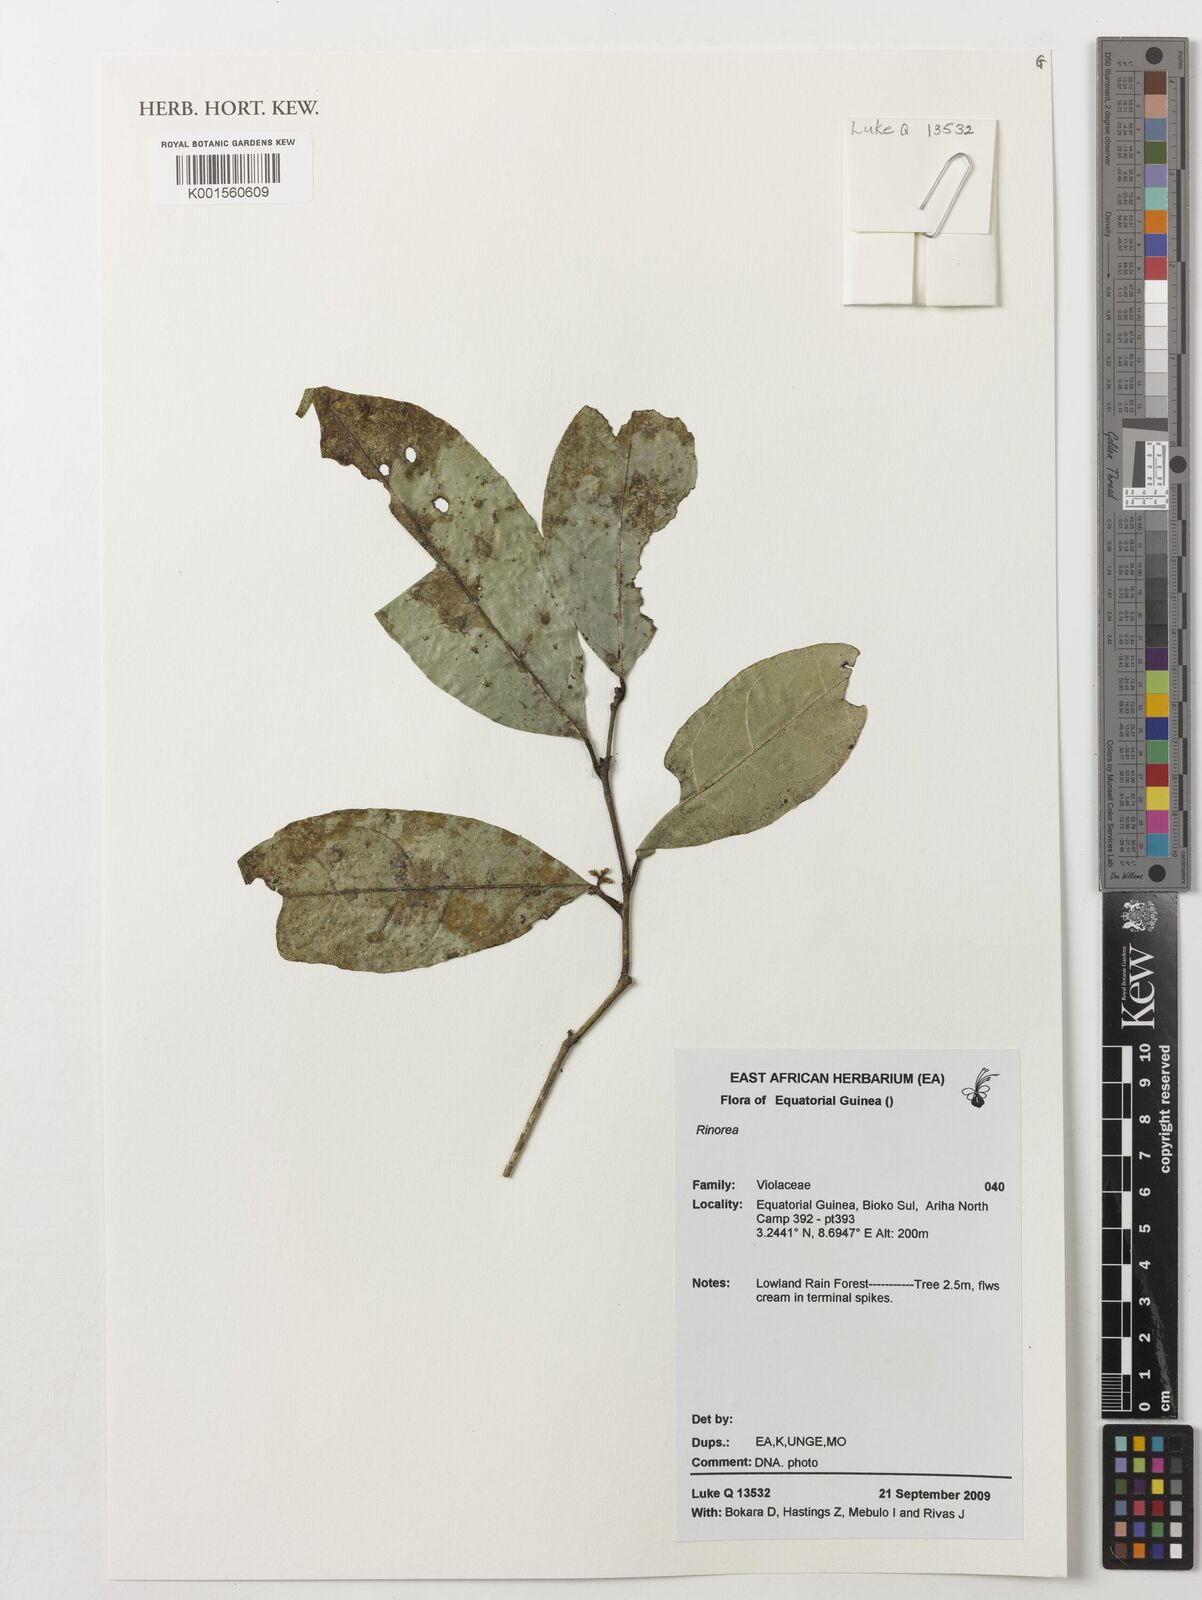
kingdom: Plantae
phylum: Tracheophyta
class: Magnoliopsida
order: Malpighiales
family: Violaceae
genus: Rinorea
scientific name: Rinorea
